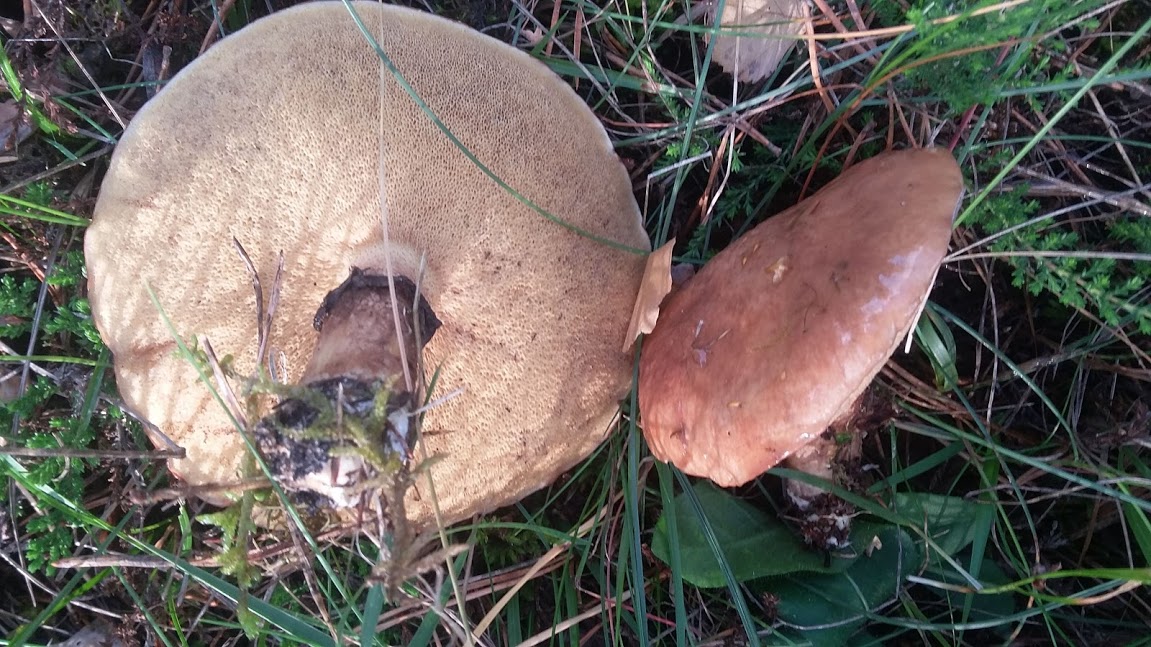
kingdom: Fungi
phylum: Basidiomycota
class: Agaricomycetes
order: Boletales
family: Suillaceae
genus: Suillus
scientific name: Suillus luteus
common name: brungul slimrørhat
